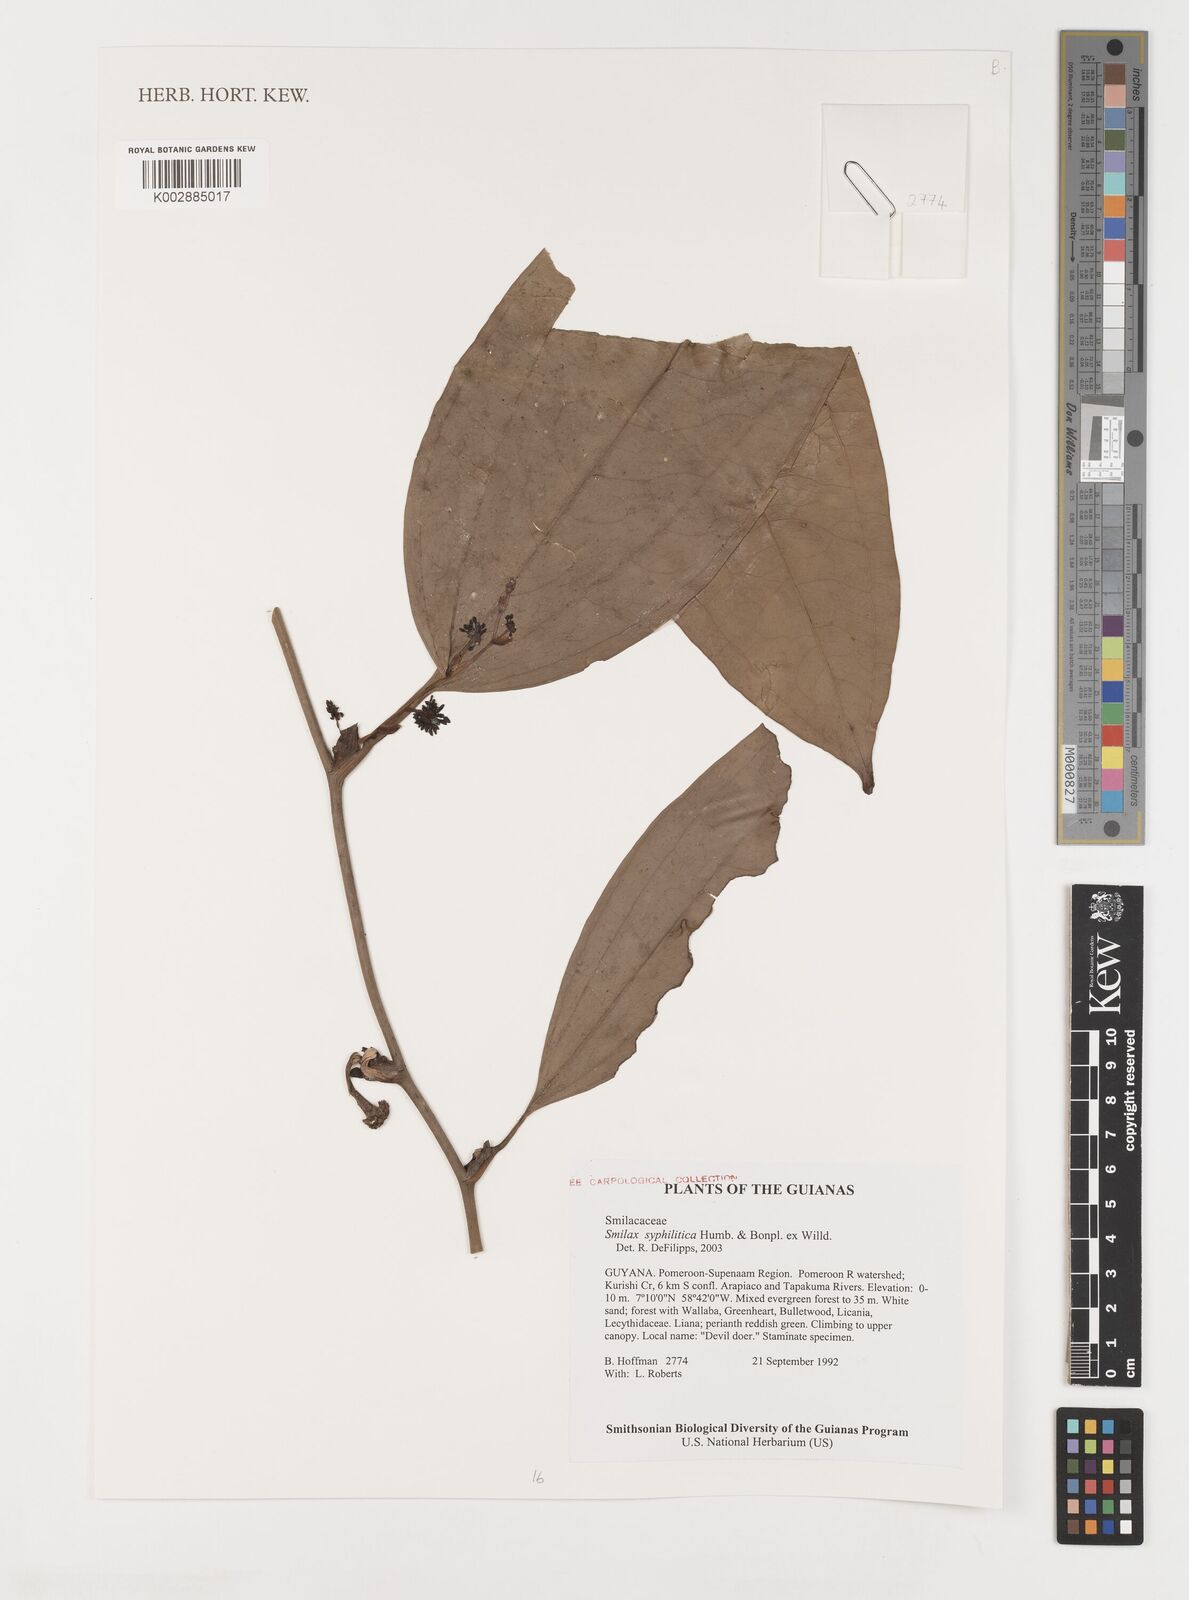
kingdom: Plantae
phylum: Tracheophyta
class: Liliopsida
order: Liliales
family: Smilacaceae
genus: Smilax
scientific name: Smilax schomburgkiana
